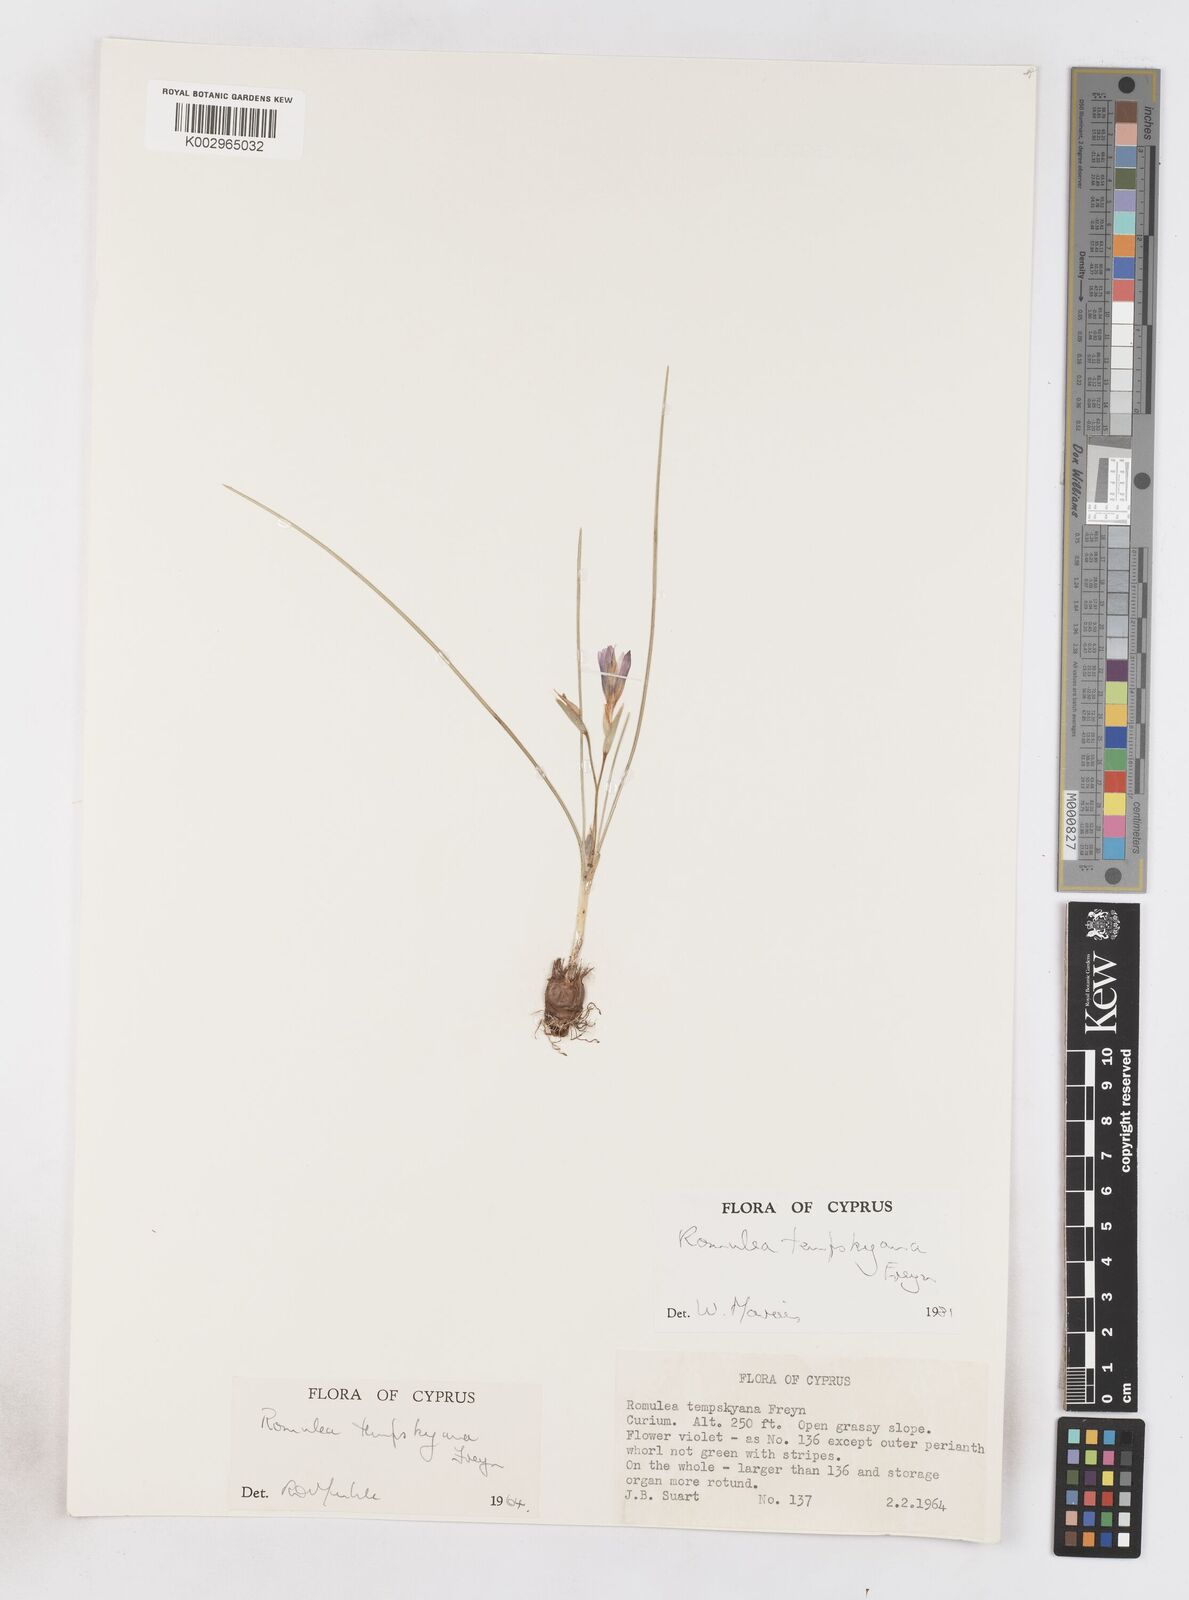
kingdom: Plantae
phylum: Tracheophyta
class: Liliopsida
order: Asparagales
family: Iridaceae
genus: Romulea
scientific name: Romulea tempskyana
